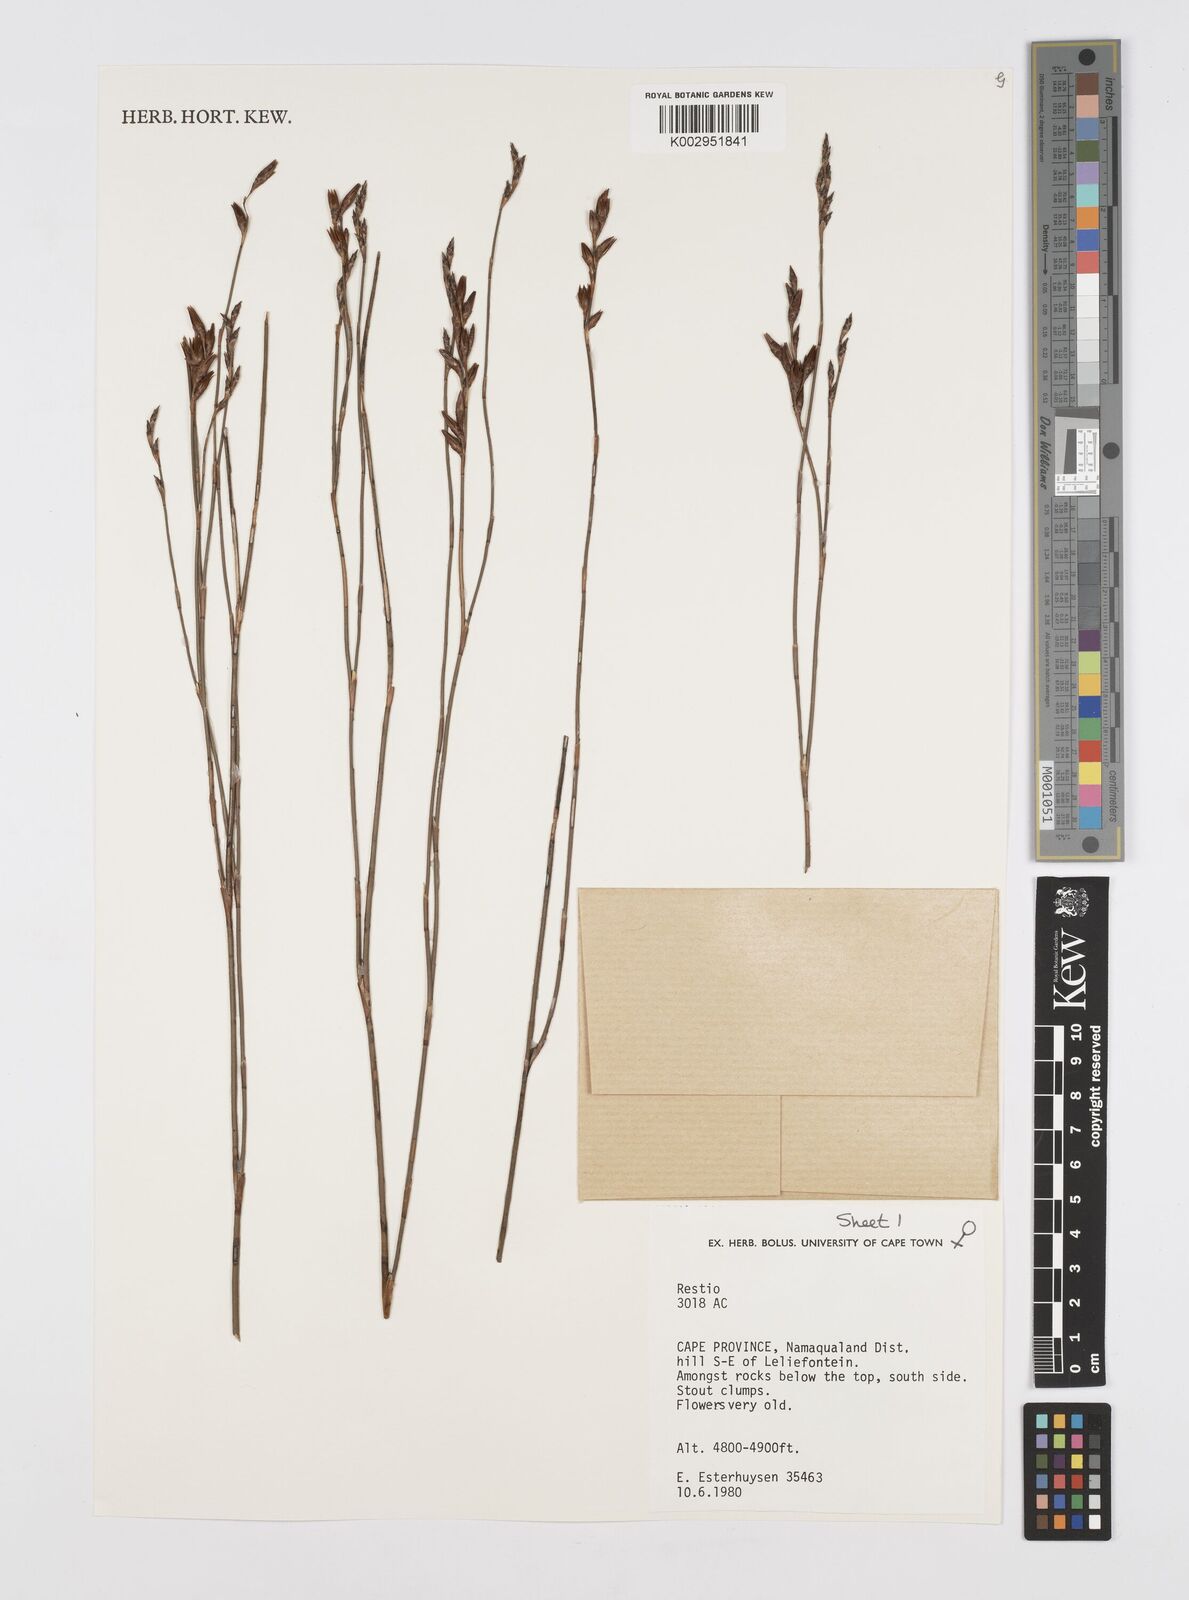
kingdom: Plantae
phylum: Tracheophyta
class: Liliopsida
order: Poales
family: Restionaceae
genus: Restio
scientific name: Restio
